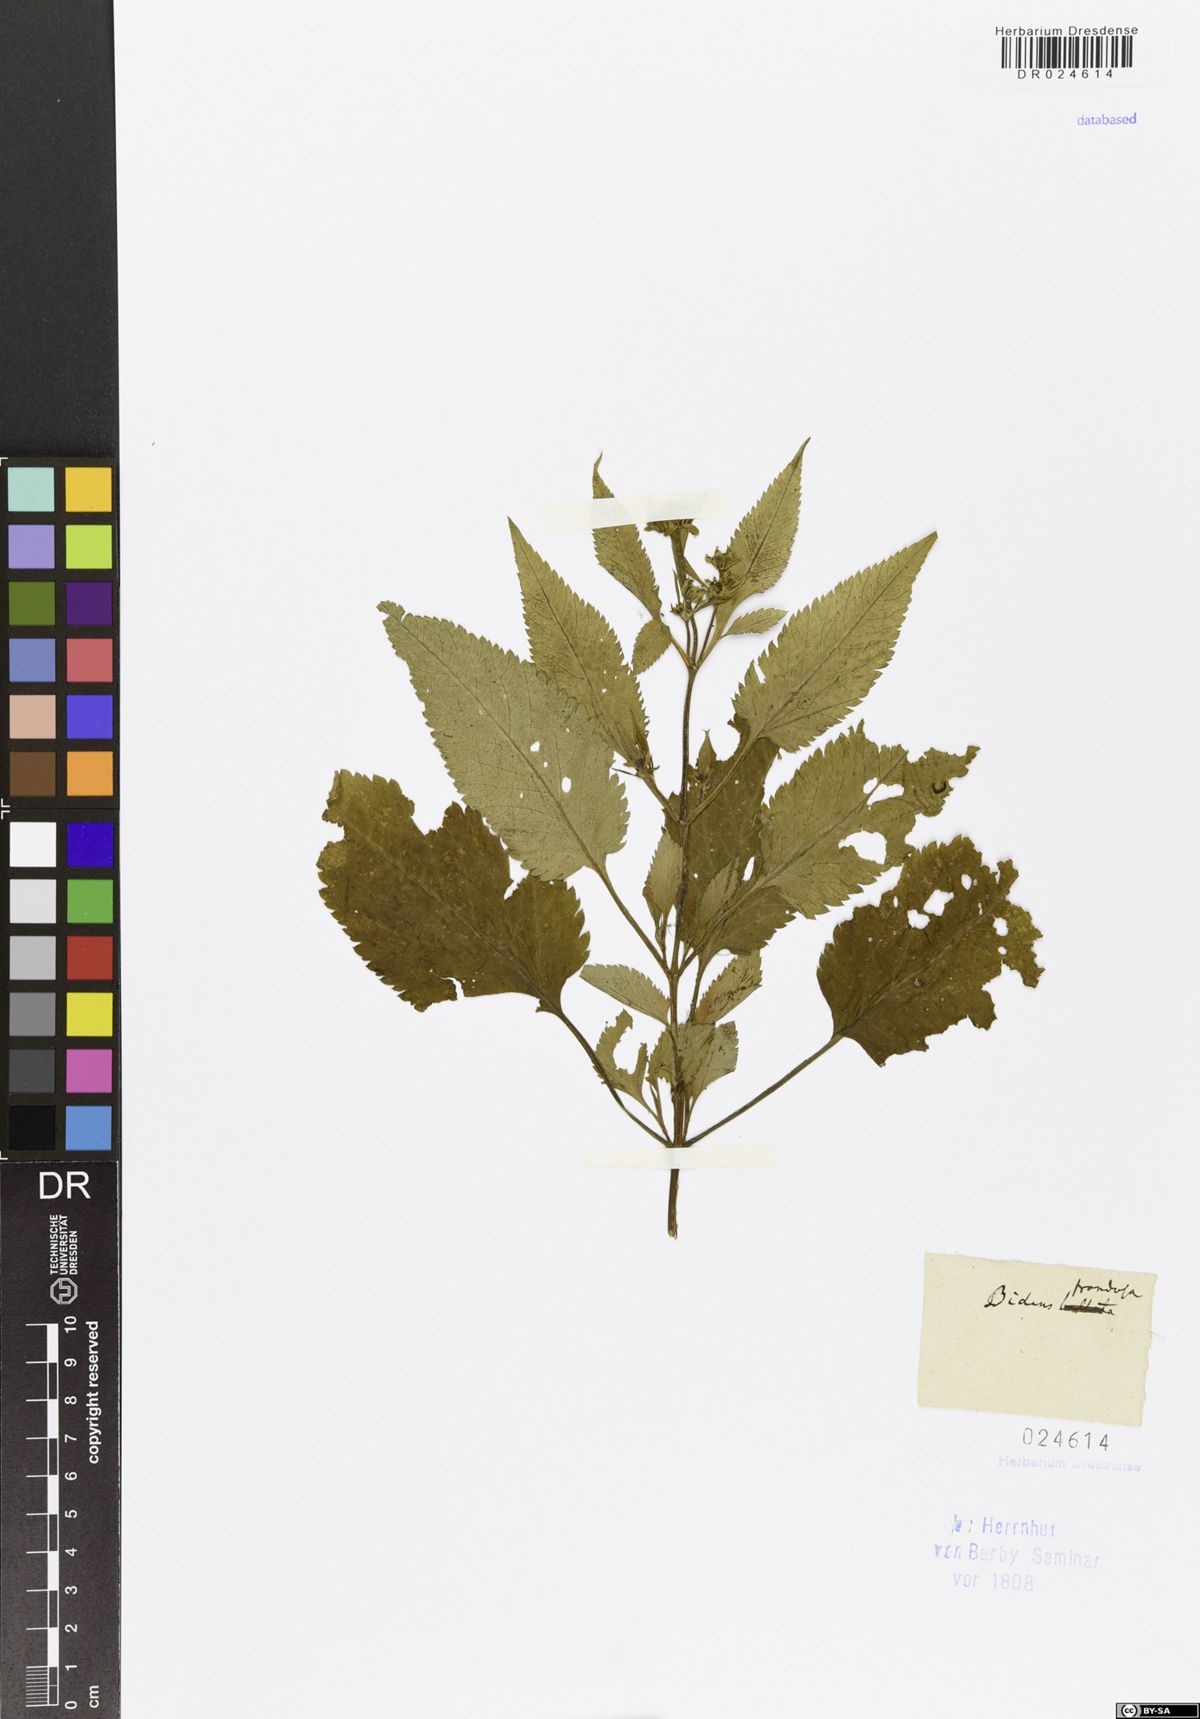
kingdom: Plantae
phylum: Tracheophyta
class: Magnoliopsida
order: Asterales
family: Asteraceae
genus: Bidens
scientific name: Bidens frondosa
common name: Beggarticks
